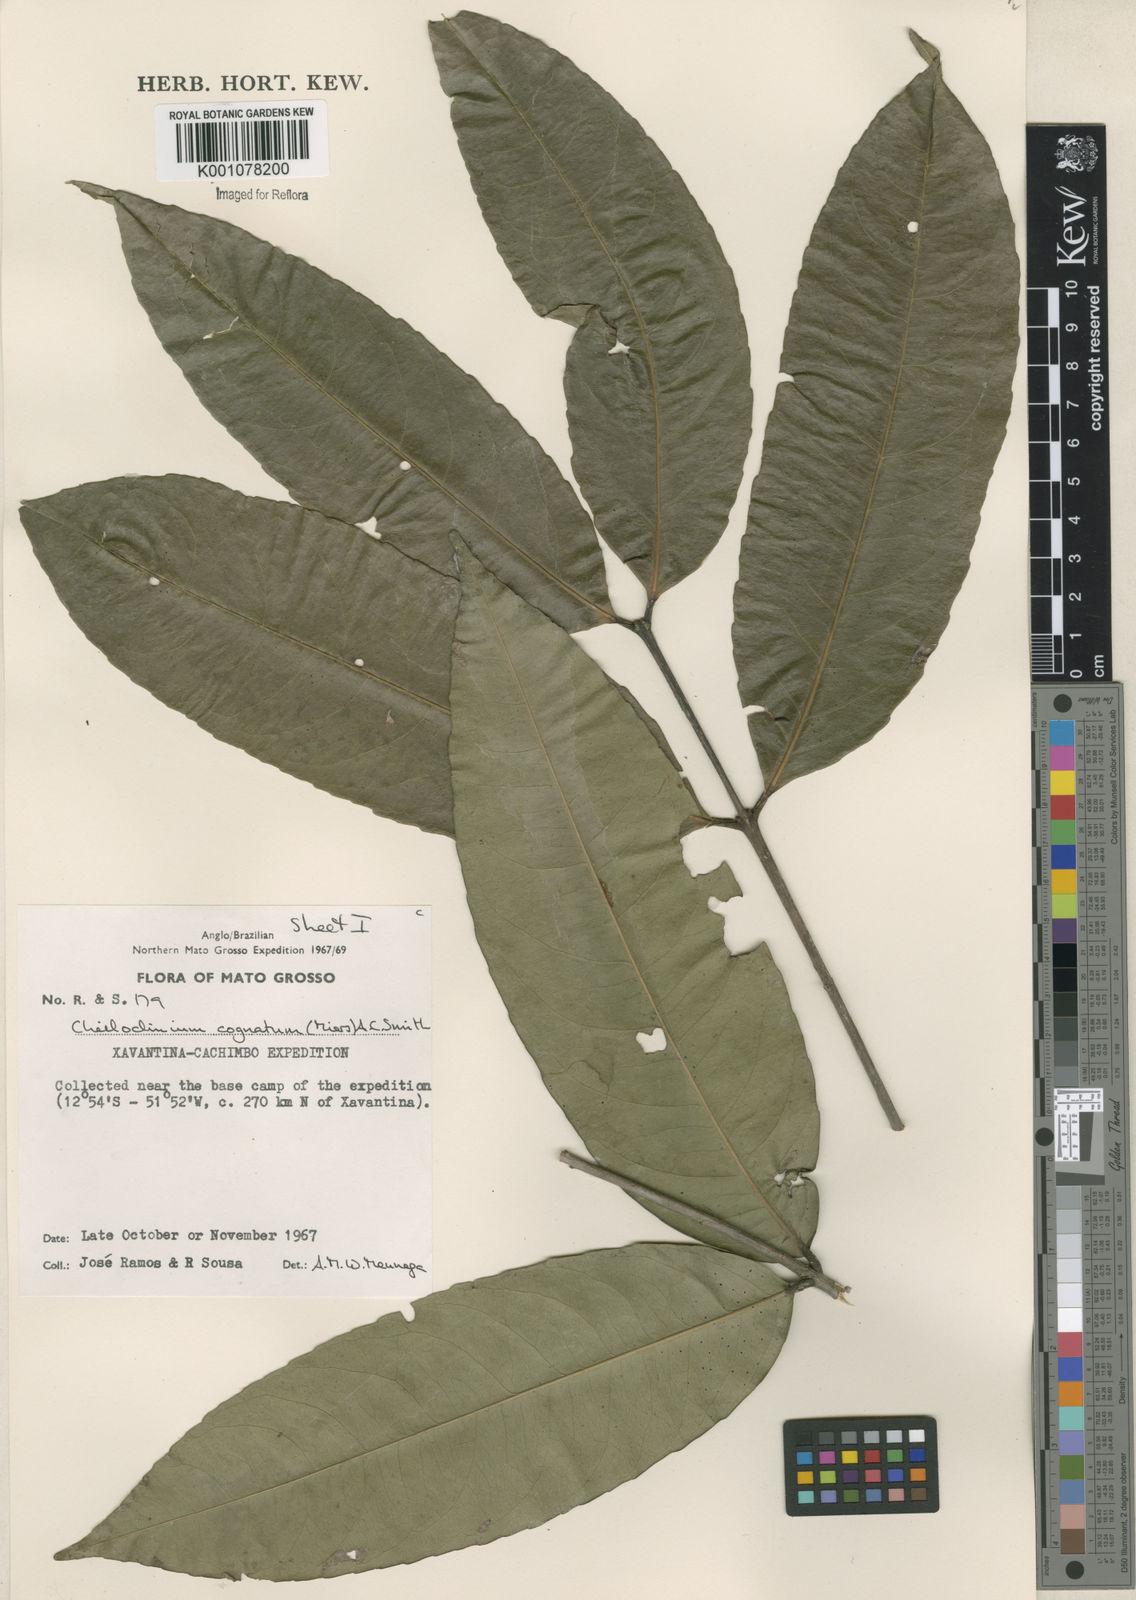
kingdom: Plantae
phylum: Tracheophyta
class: Magnoliopsida
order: Celastrales
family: Celastraceae
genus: Cheiloclinium
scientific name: Cheiloclinium cognatum
